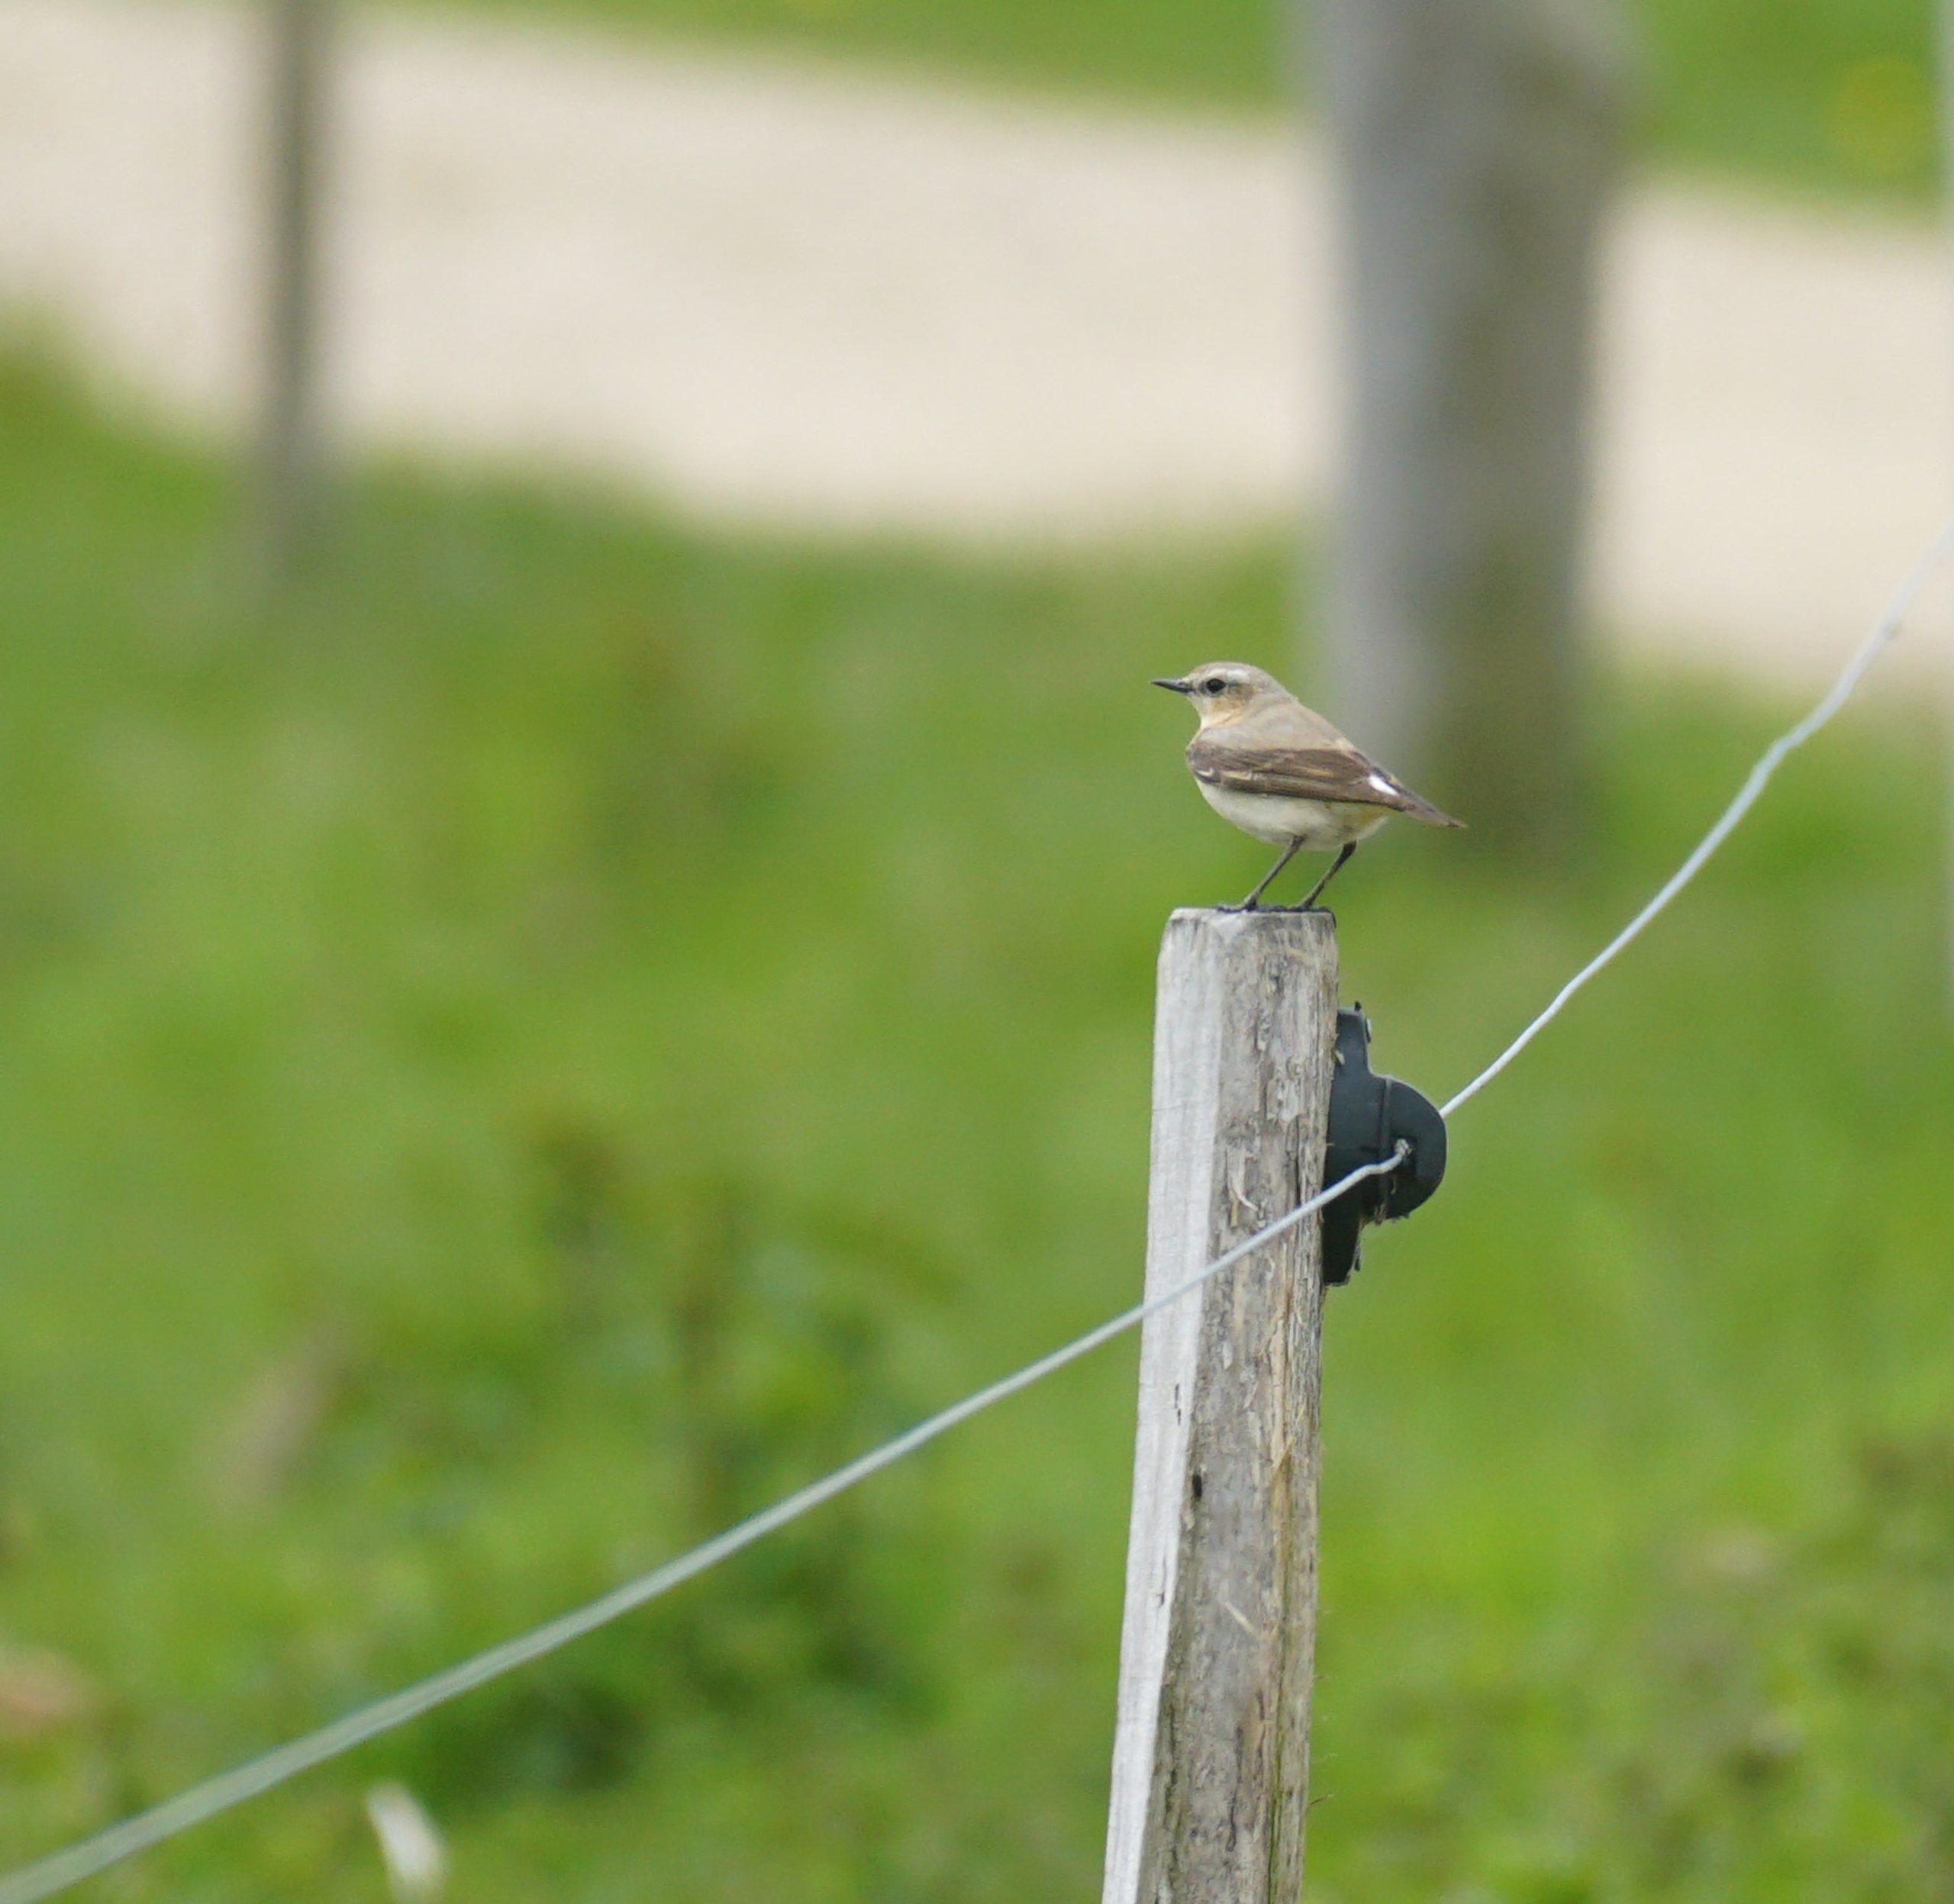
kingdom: Animalia
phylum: Chordata
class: Aves
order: Passeriformes
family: Muscicapidae
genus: Oenanthe
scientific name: Oenanthe oenanthe
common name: Stenpikker
